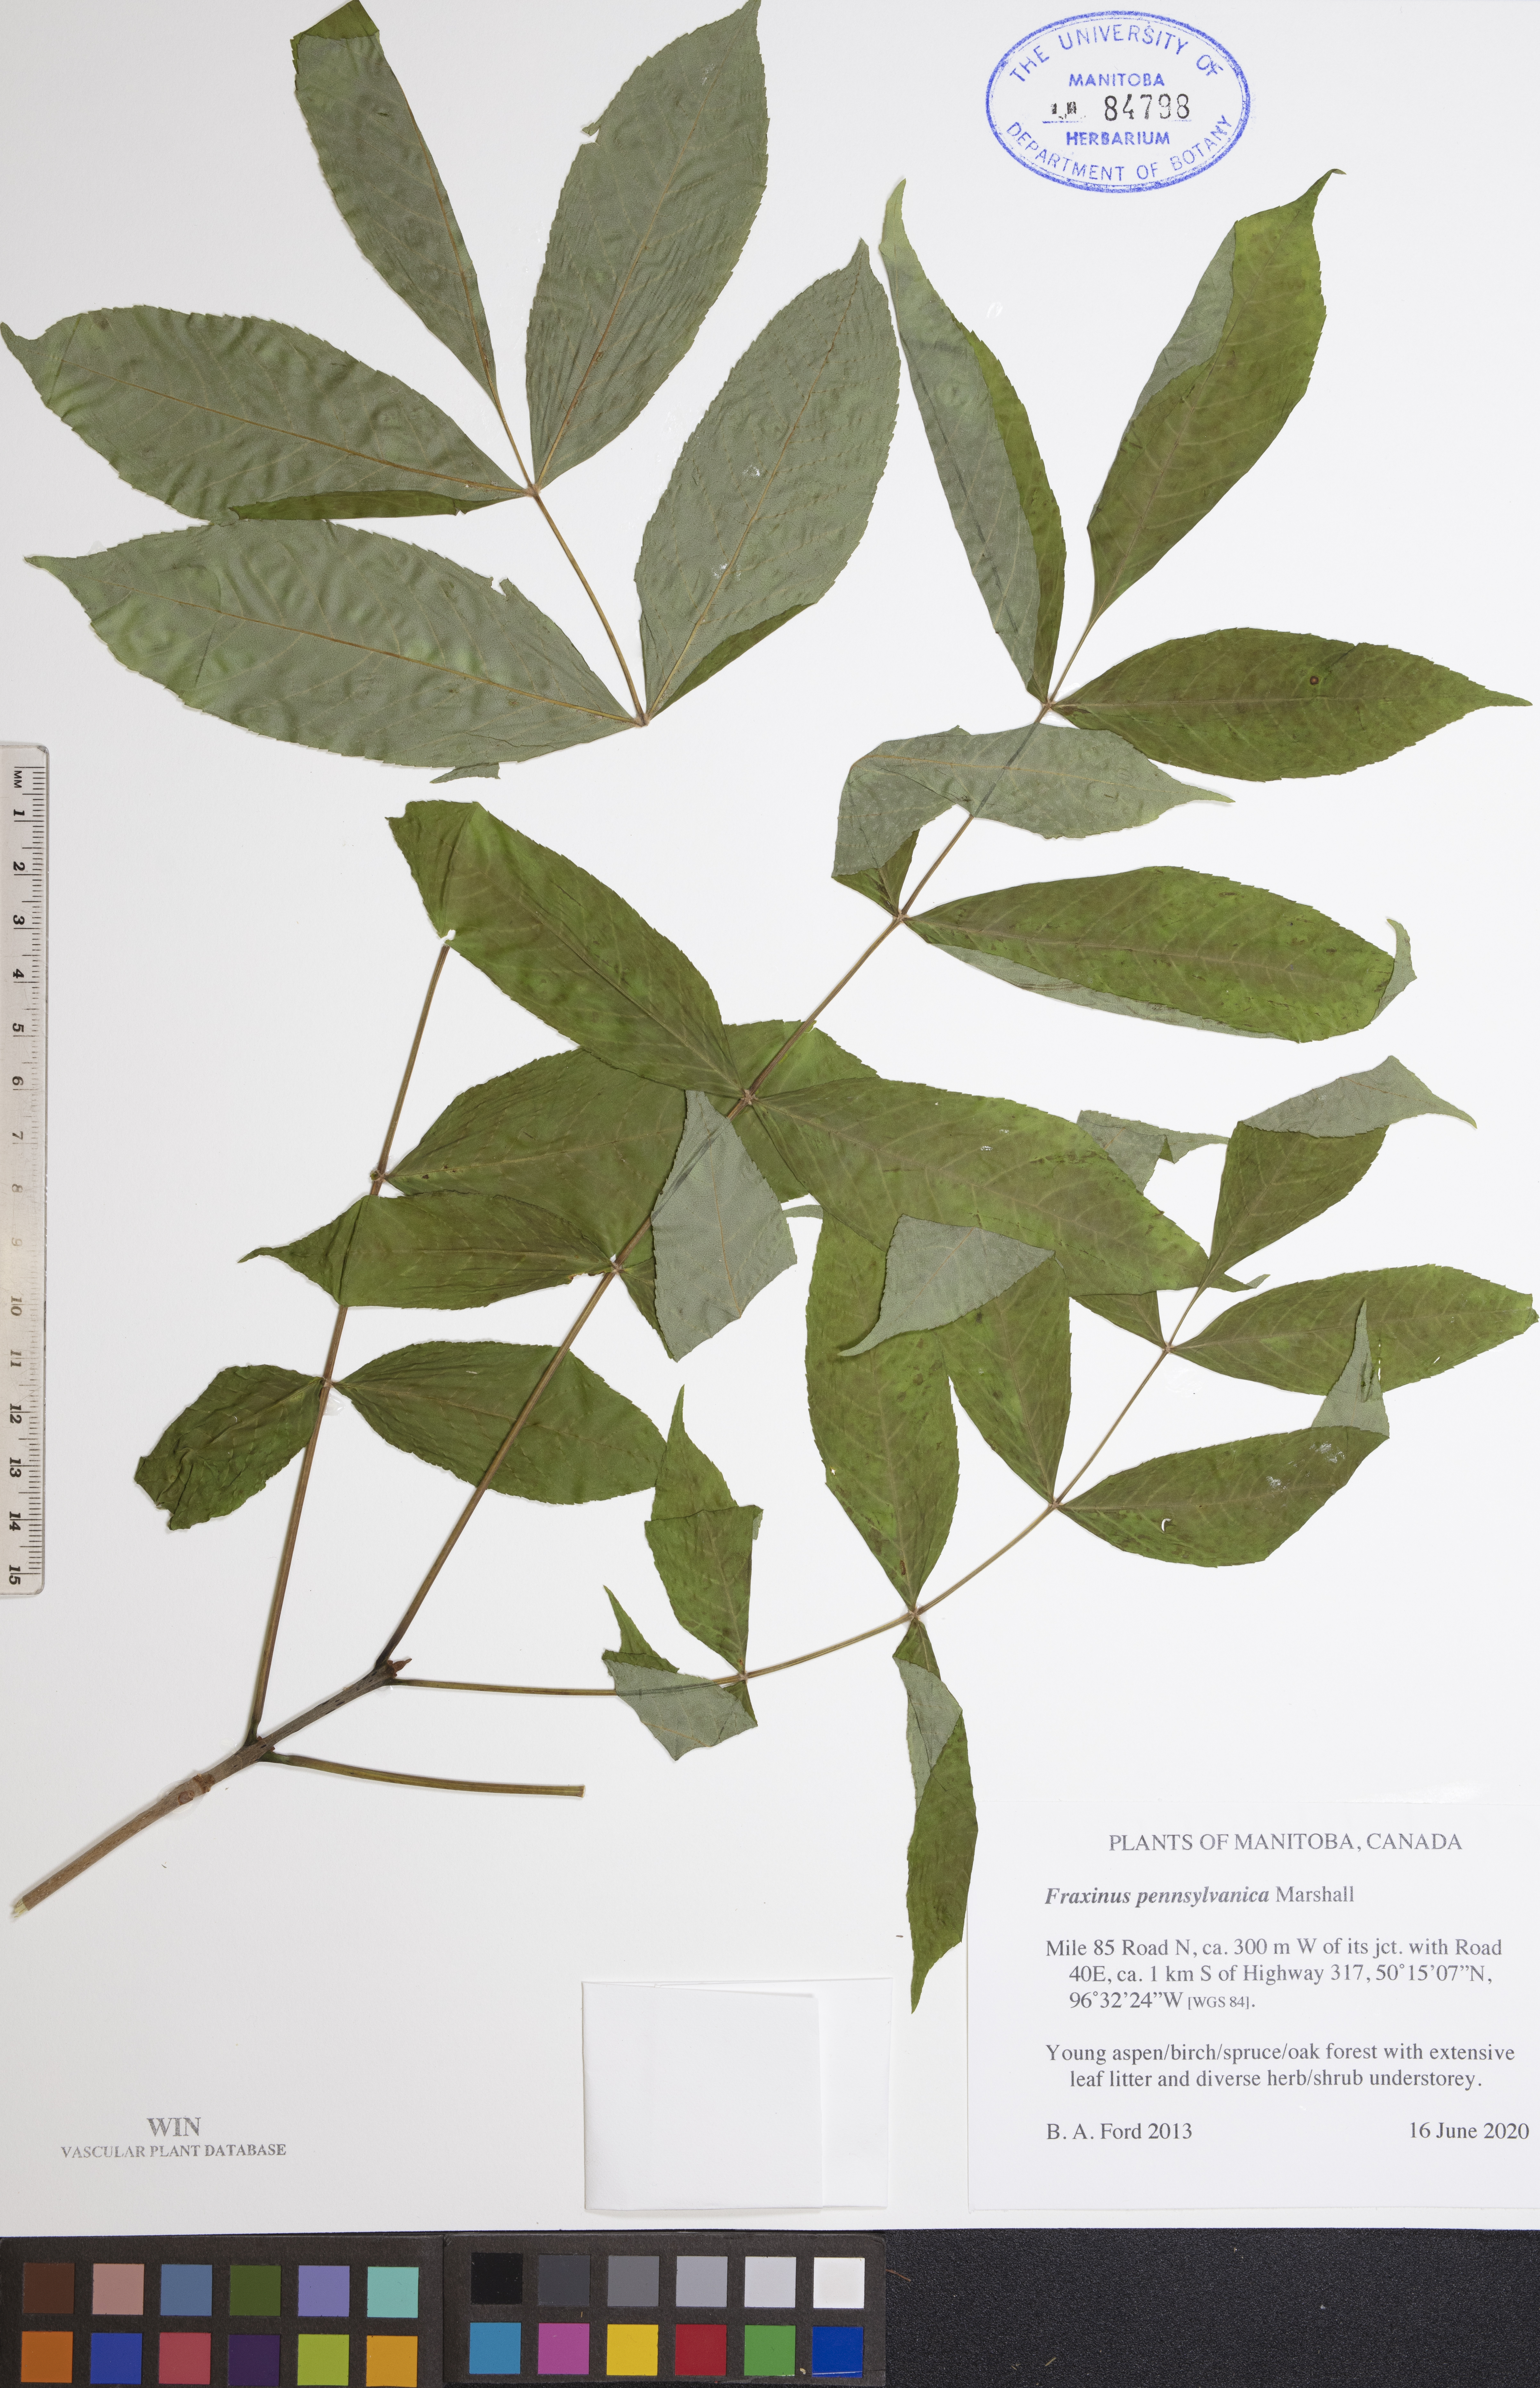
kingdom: Plantae
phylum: Tracheophyta
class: Magnoliopsida
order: Lamiales
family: Oleaceae
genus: Fraxinus
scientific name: Fraxinus pennsylvanica
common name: Green ash
